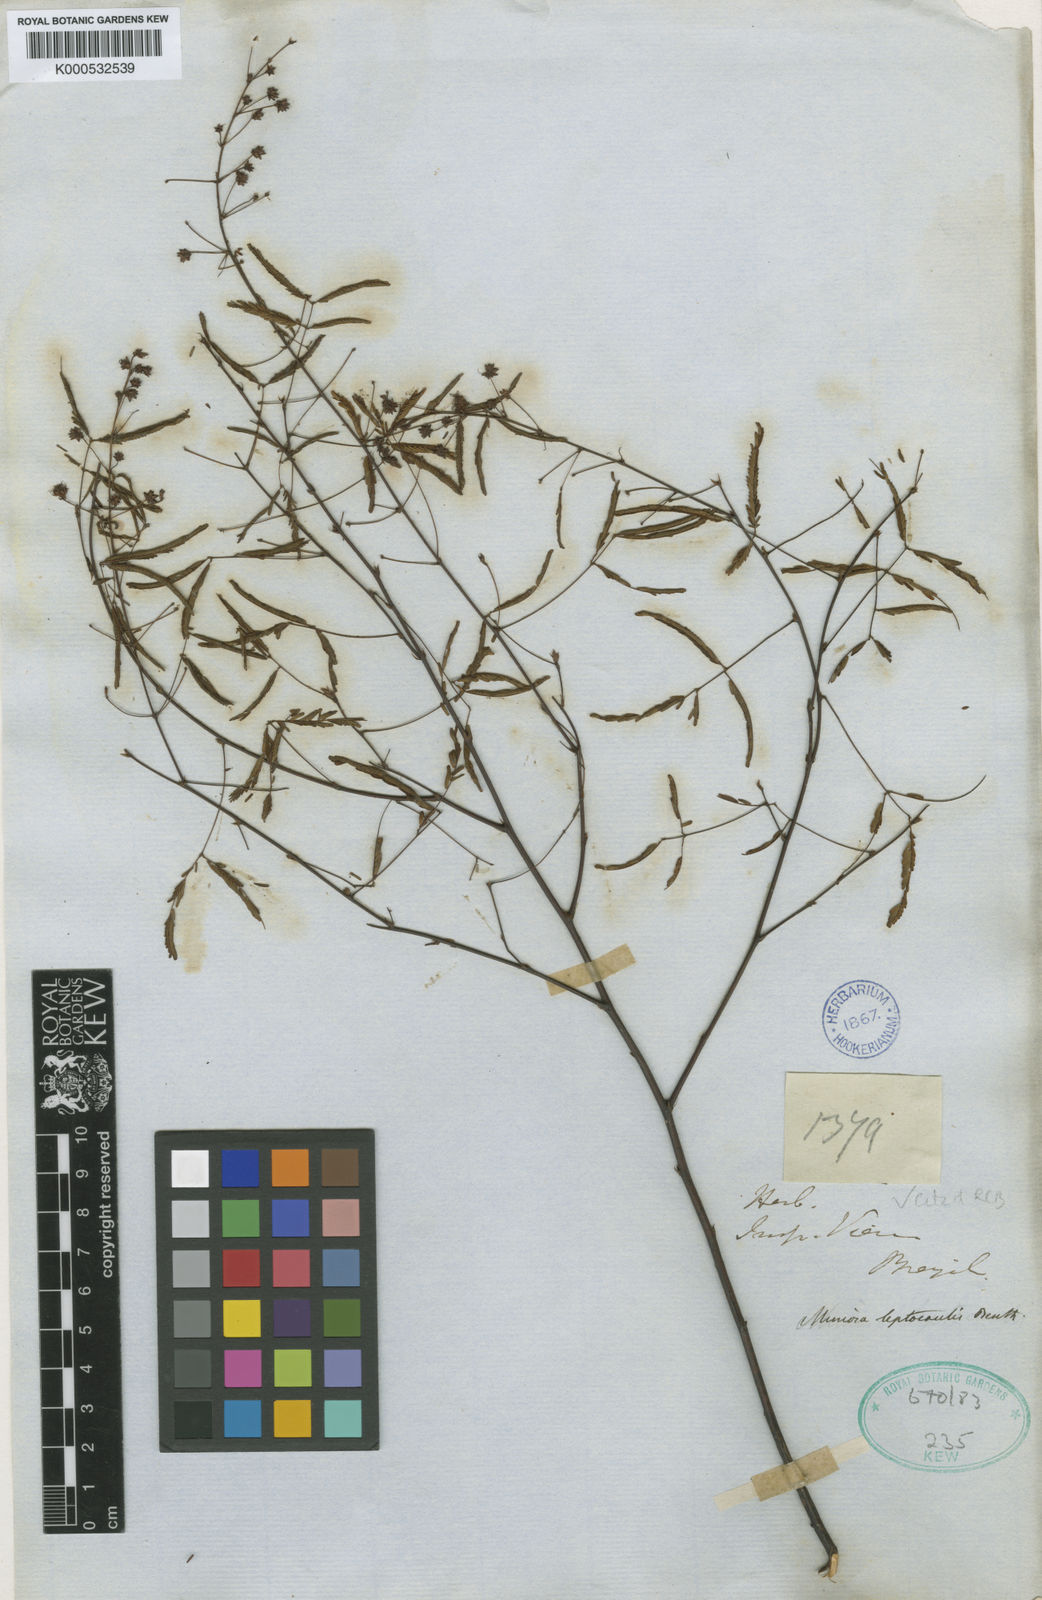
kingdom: Plantae
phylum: Tracheophyta
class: Magnoliopsida
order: Fabales
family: Fabaceae
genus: Mimosa
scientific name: Mimosa somnians
